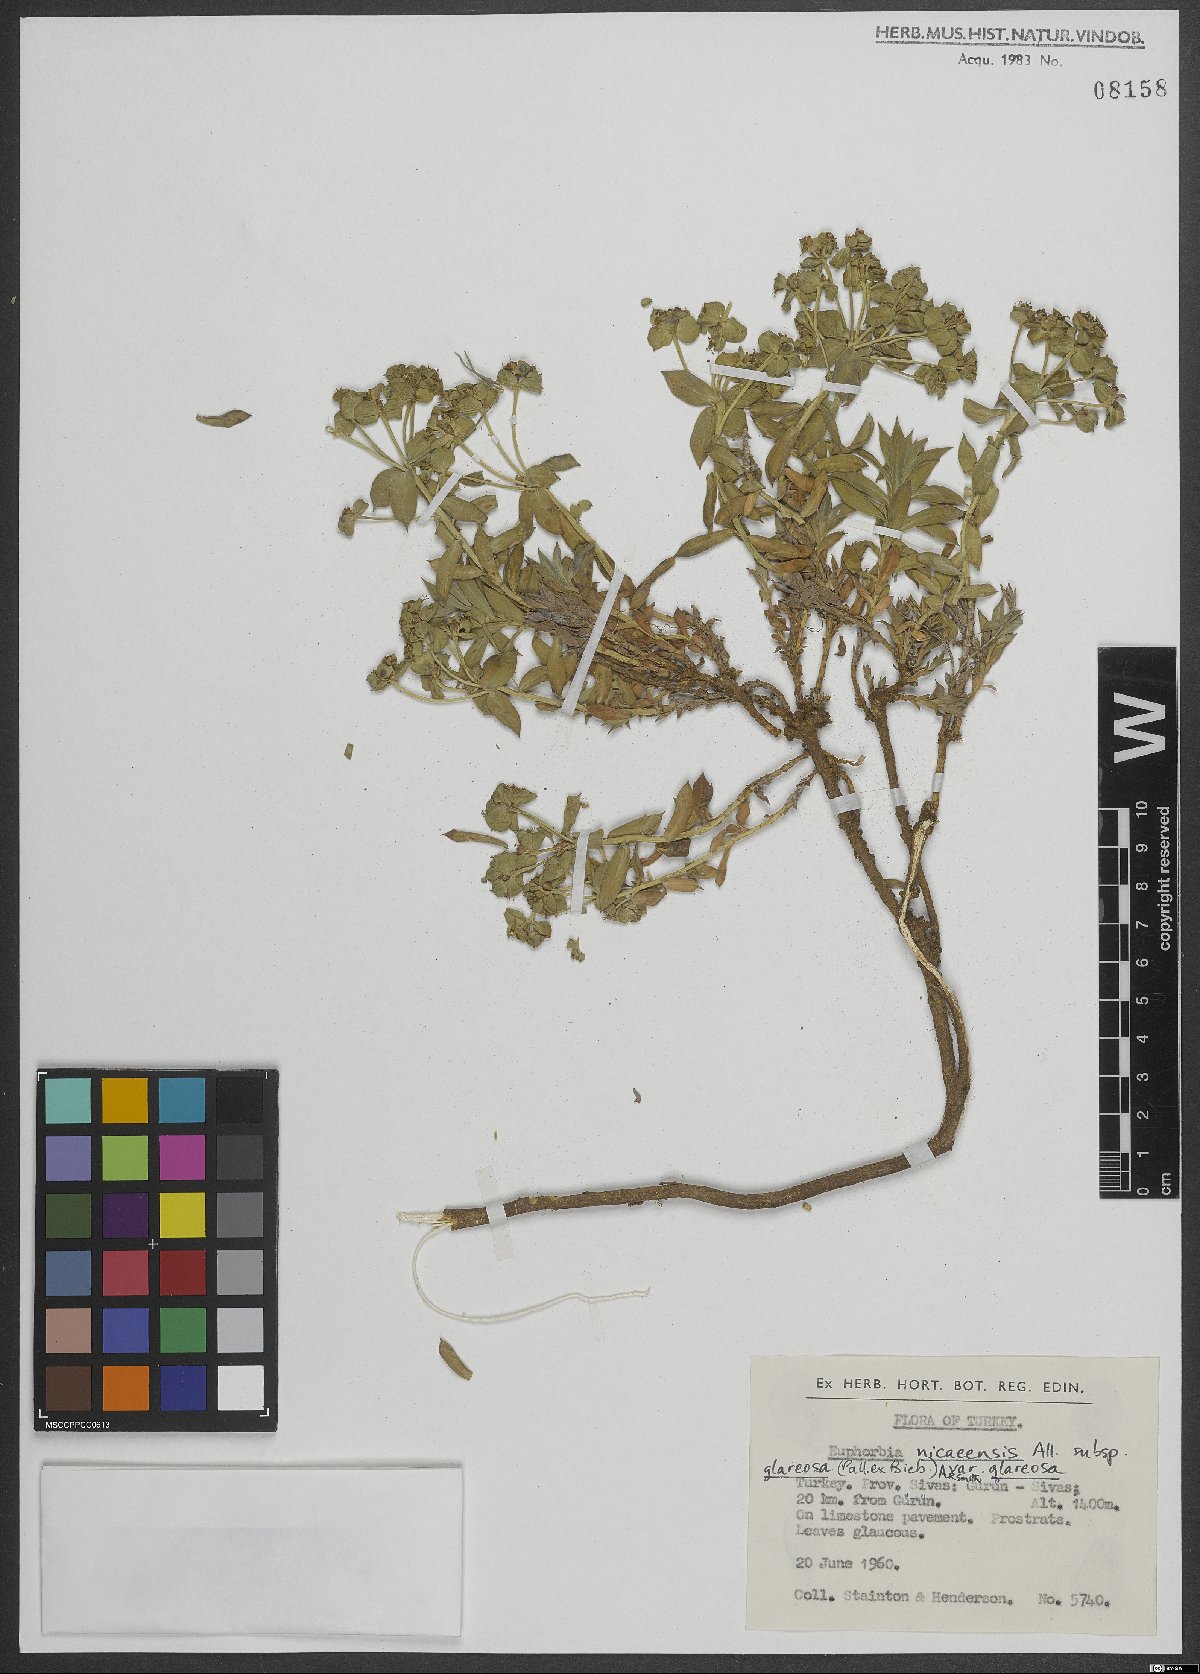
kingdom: Plantae
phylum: Tracheophyta
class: Magnoliopsida
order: Malpighiales
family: Euphorbiaceae
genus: Euphorbia
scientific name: Euphorbia nicaeensis
